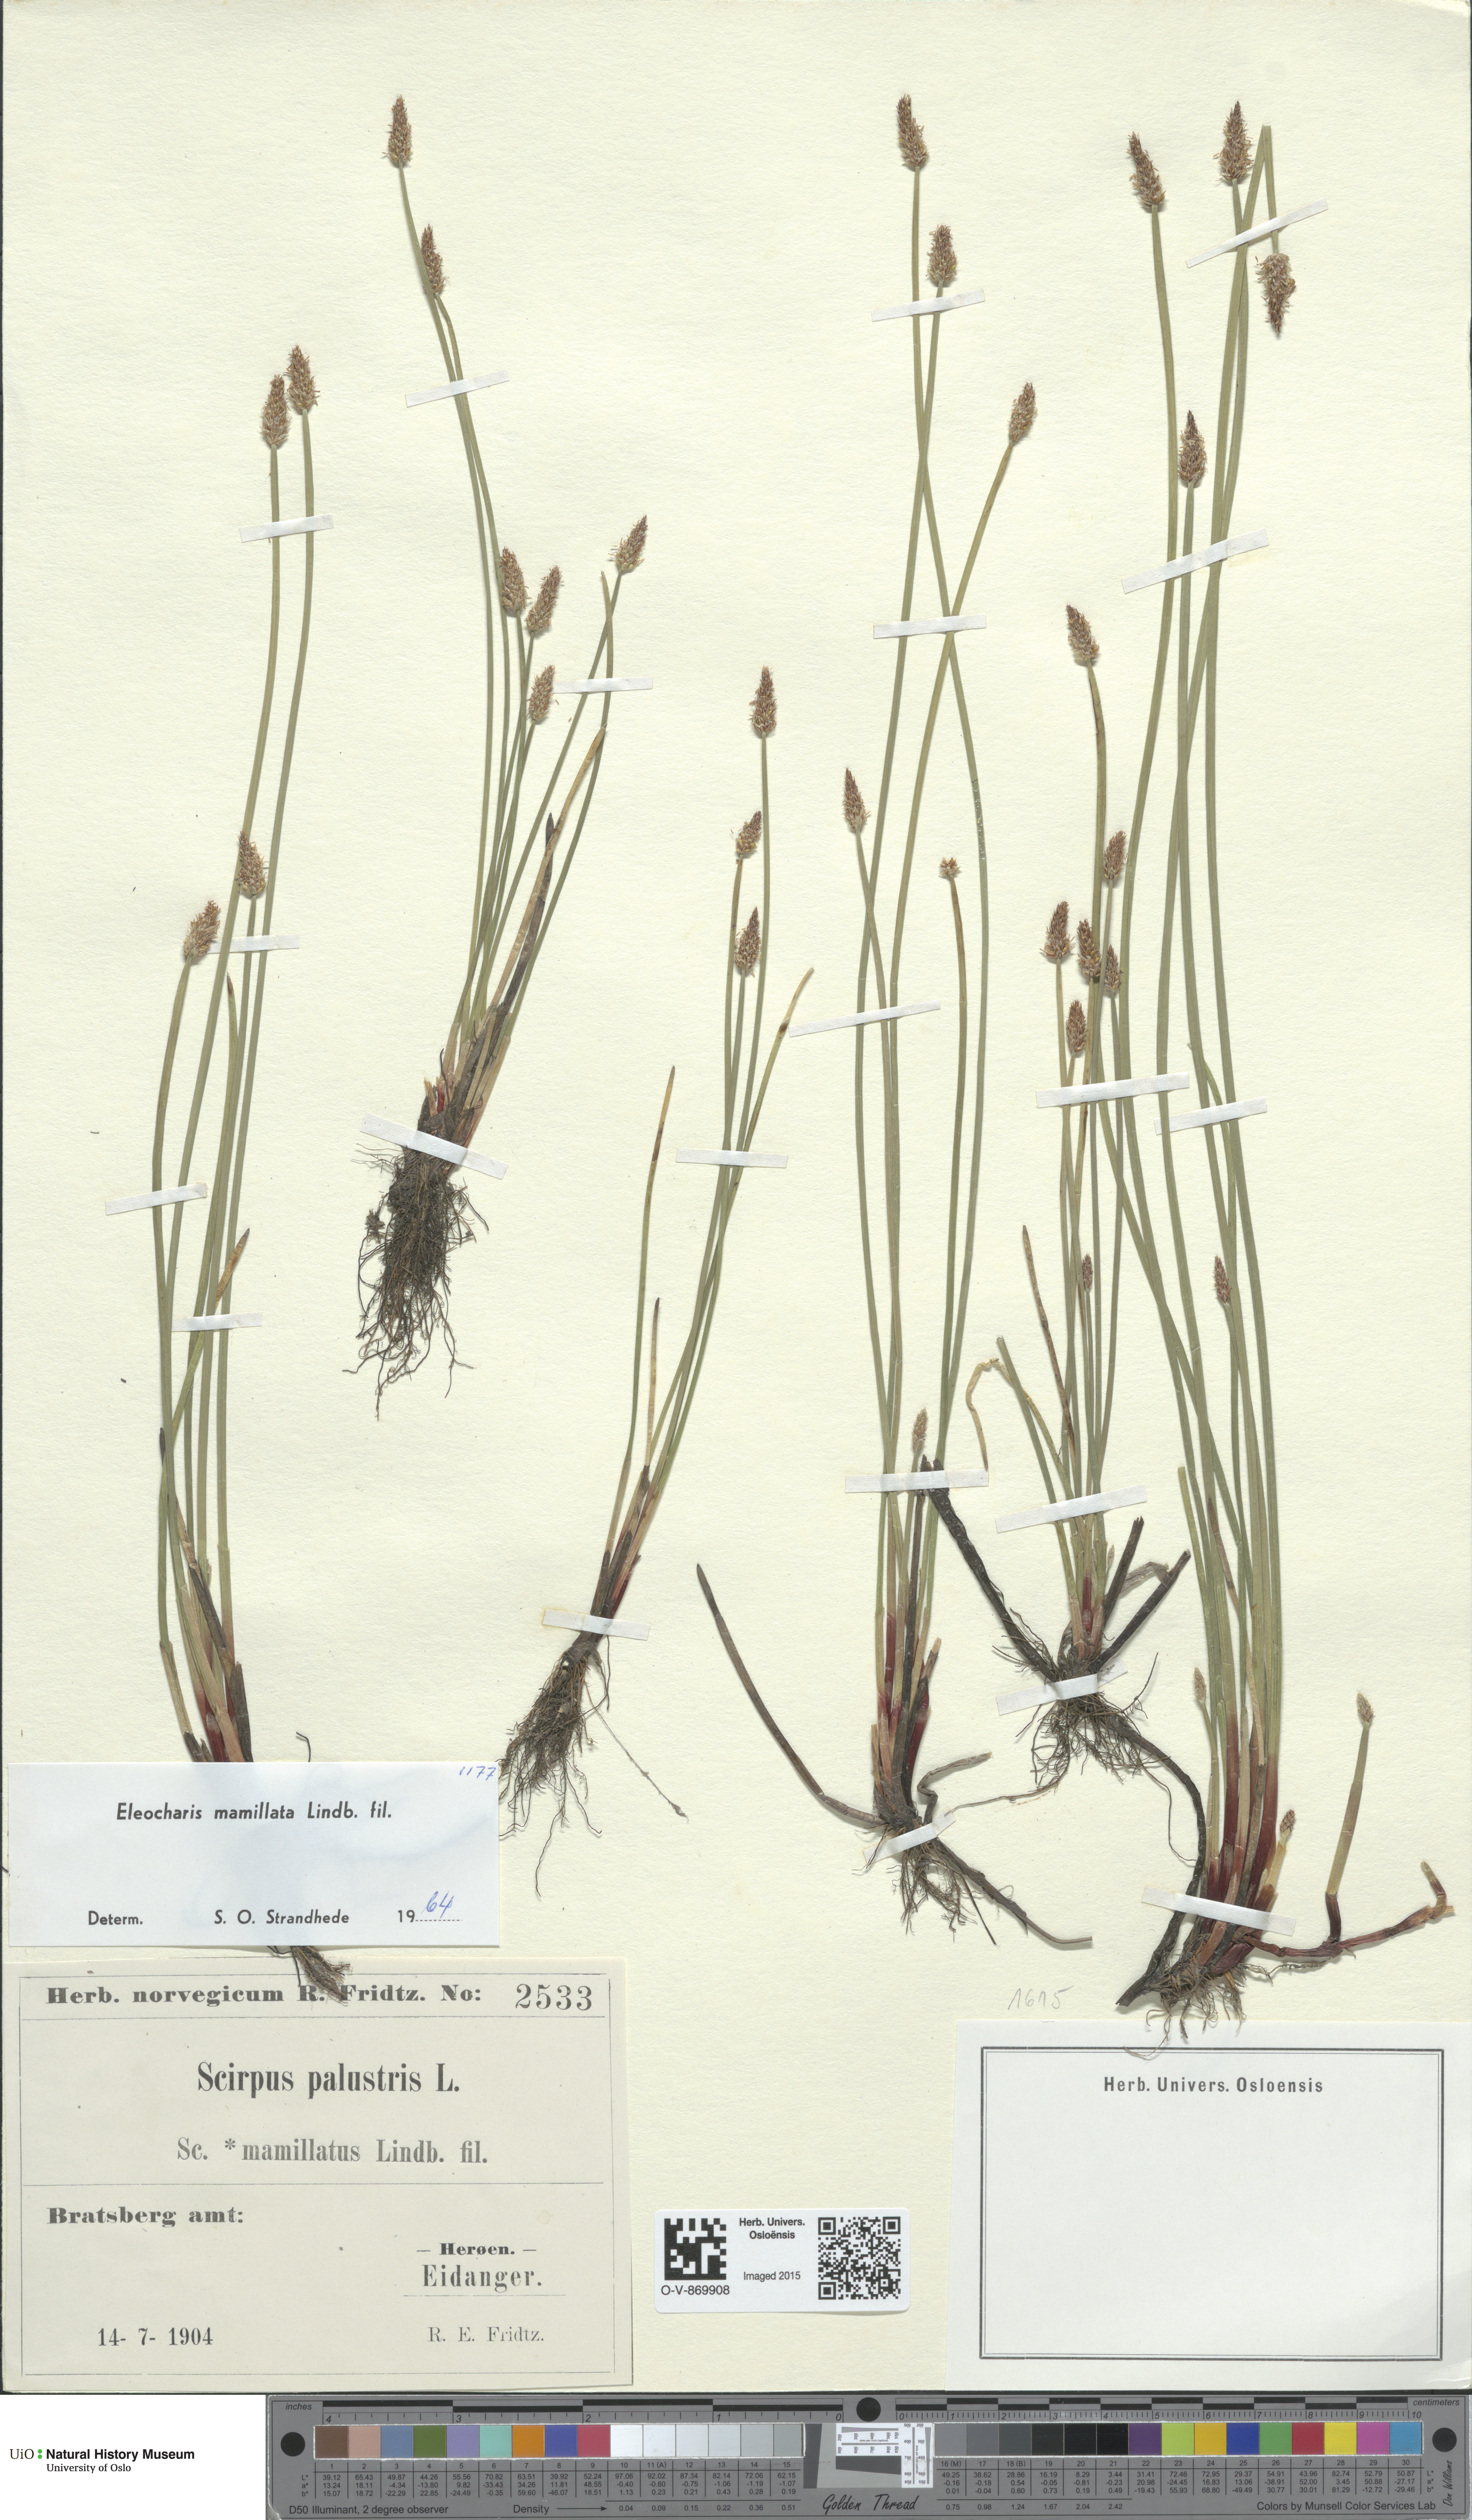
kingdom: Plantae
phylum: Tracheophyta
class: Liliopsida
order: Poales
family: Cyperaceae
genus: Eleocharis
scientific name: Eleocharis mamillata
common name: Northern spike-rush
